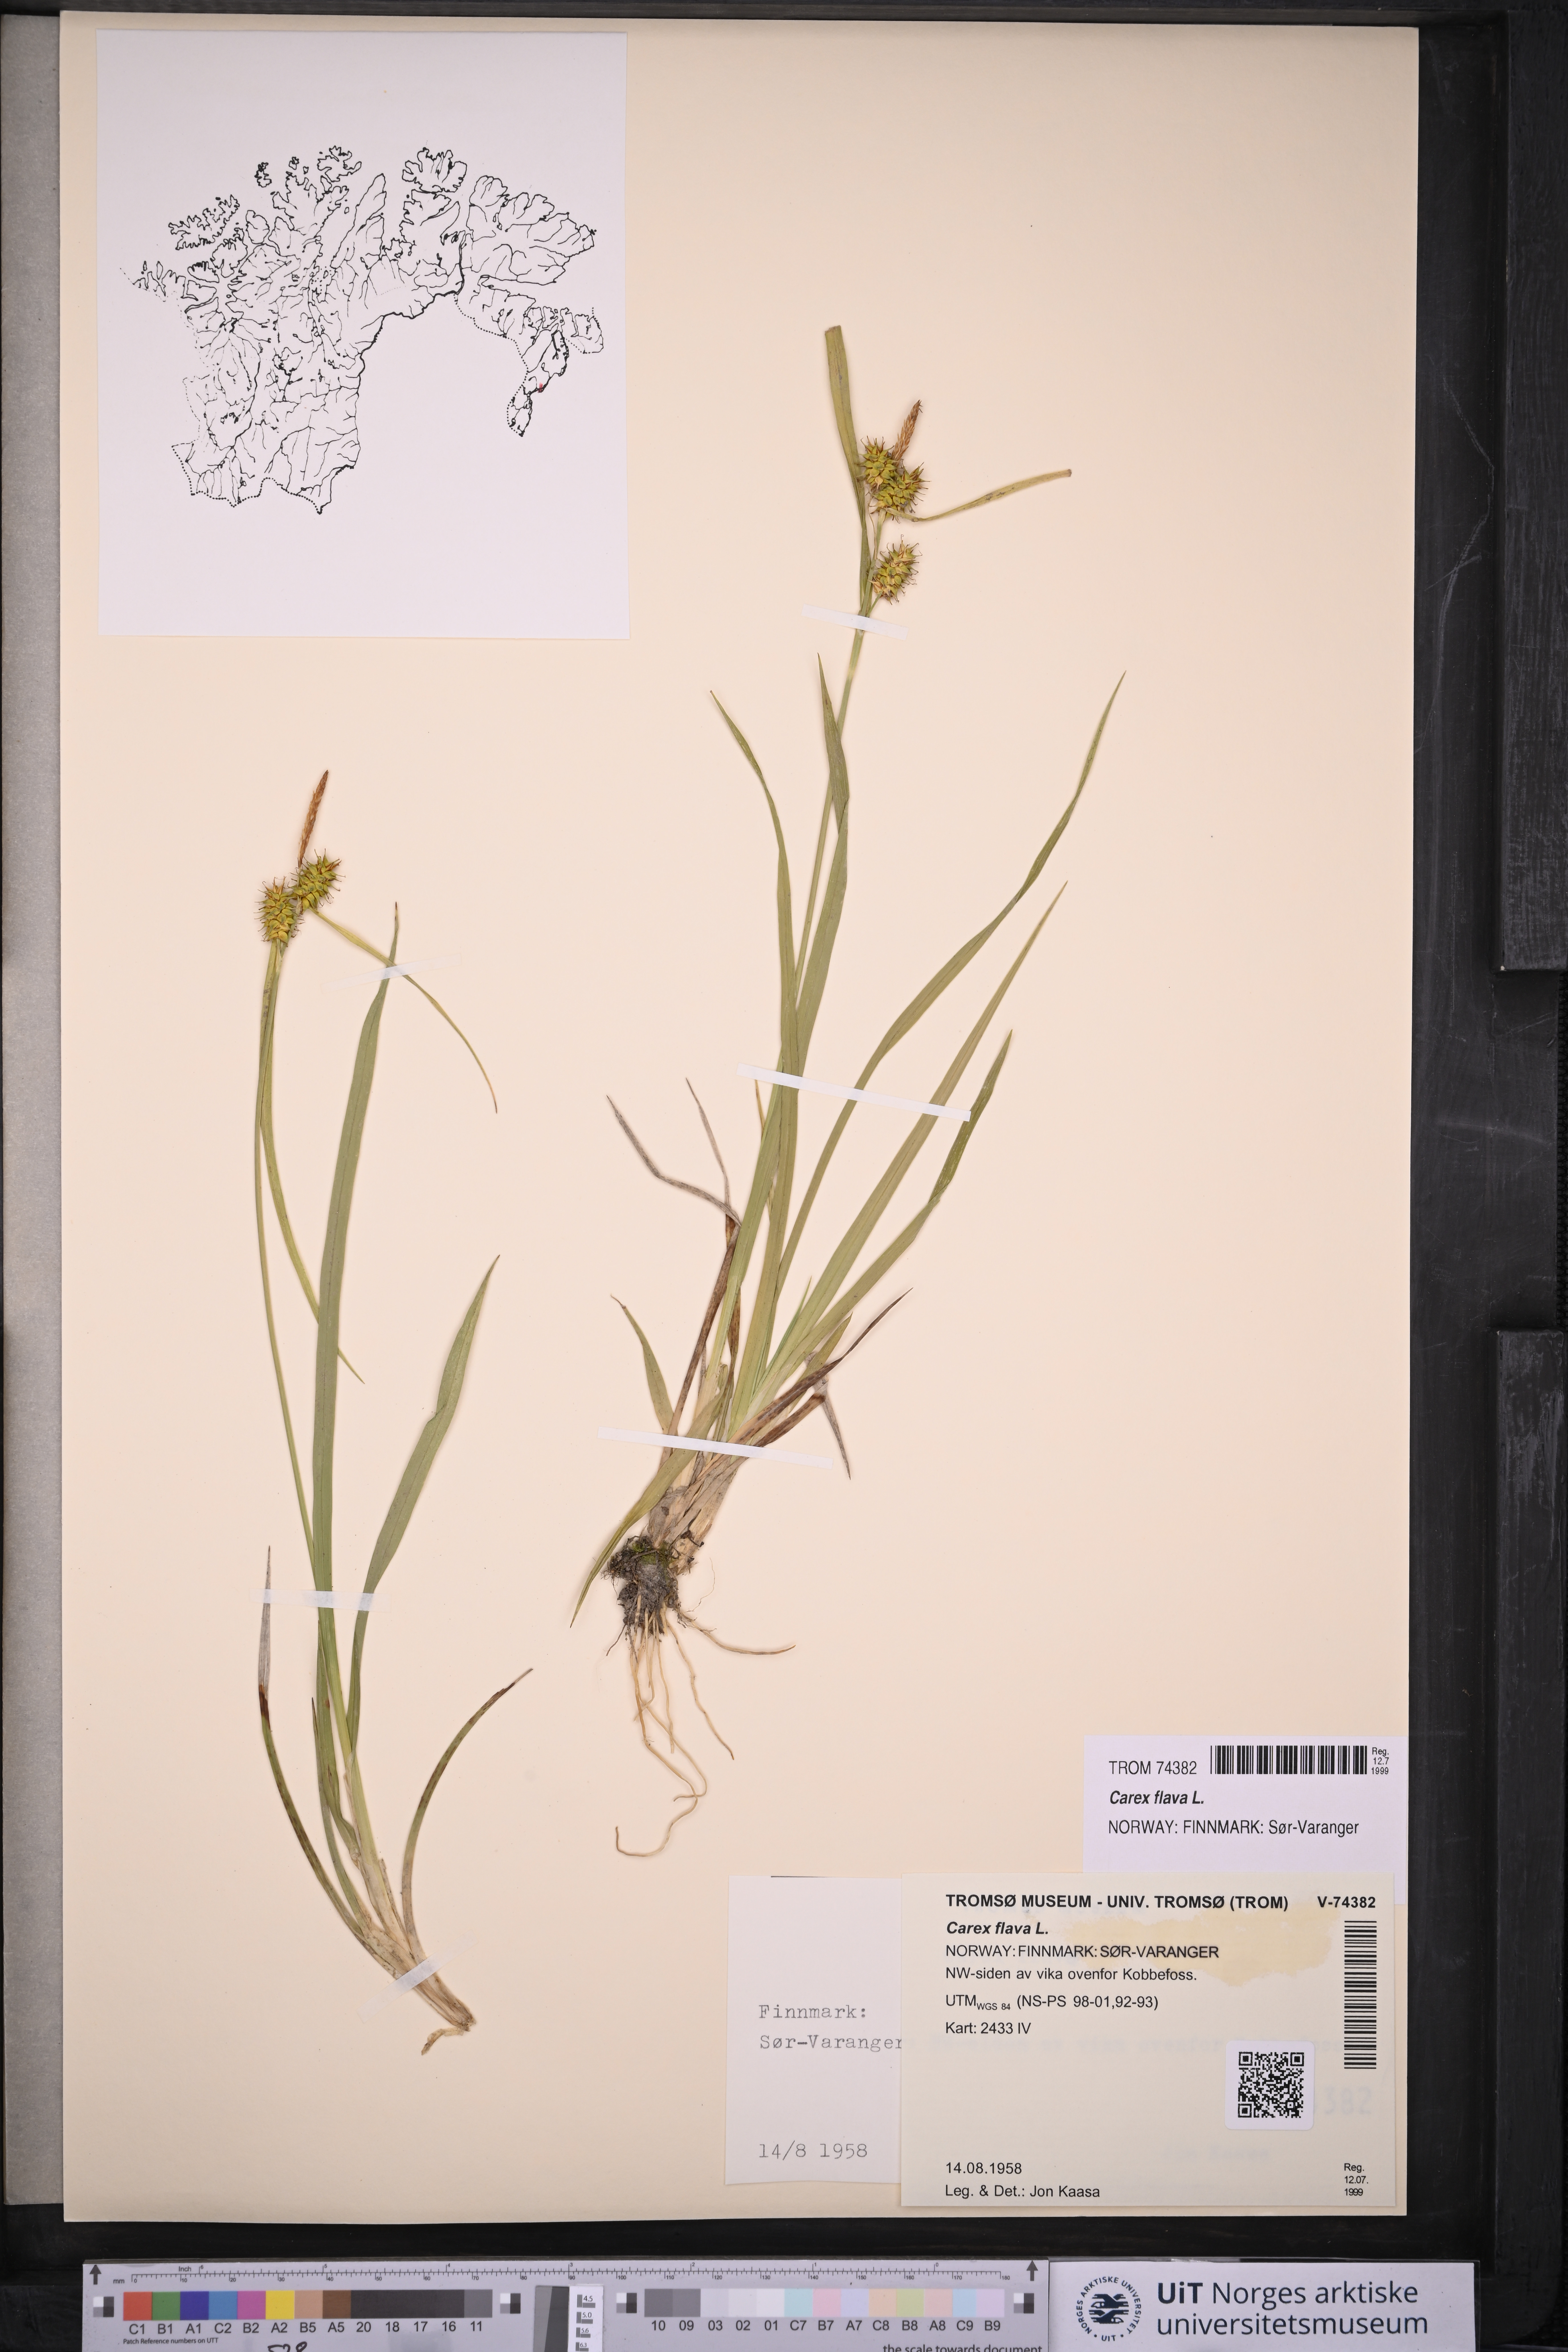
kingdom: Plantae
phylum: Tracheophyta
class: Liliopsida
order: Poales
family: Cyperaceae
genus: Carex
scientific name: Carex flava
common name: Large yellow-sedge
